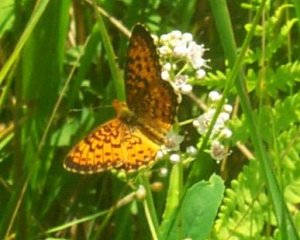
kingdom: Animalia
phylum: Arthropoda
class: Insecta
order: Lepidoptera
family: Nymphalidae
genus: Boloria
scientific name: Boloria selene
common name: Silver-bordered Fritillary
